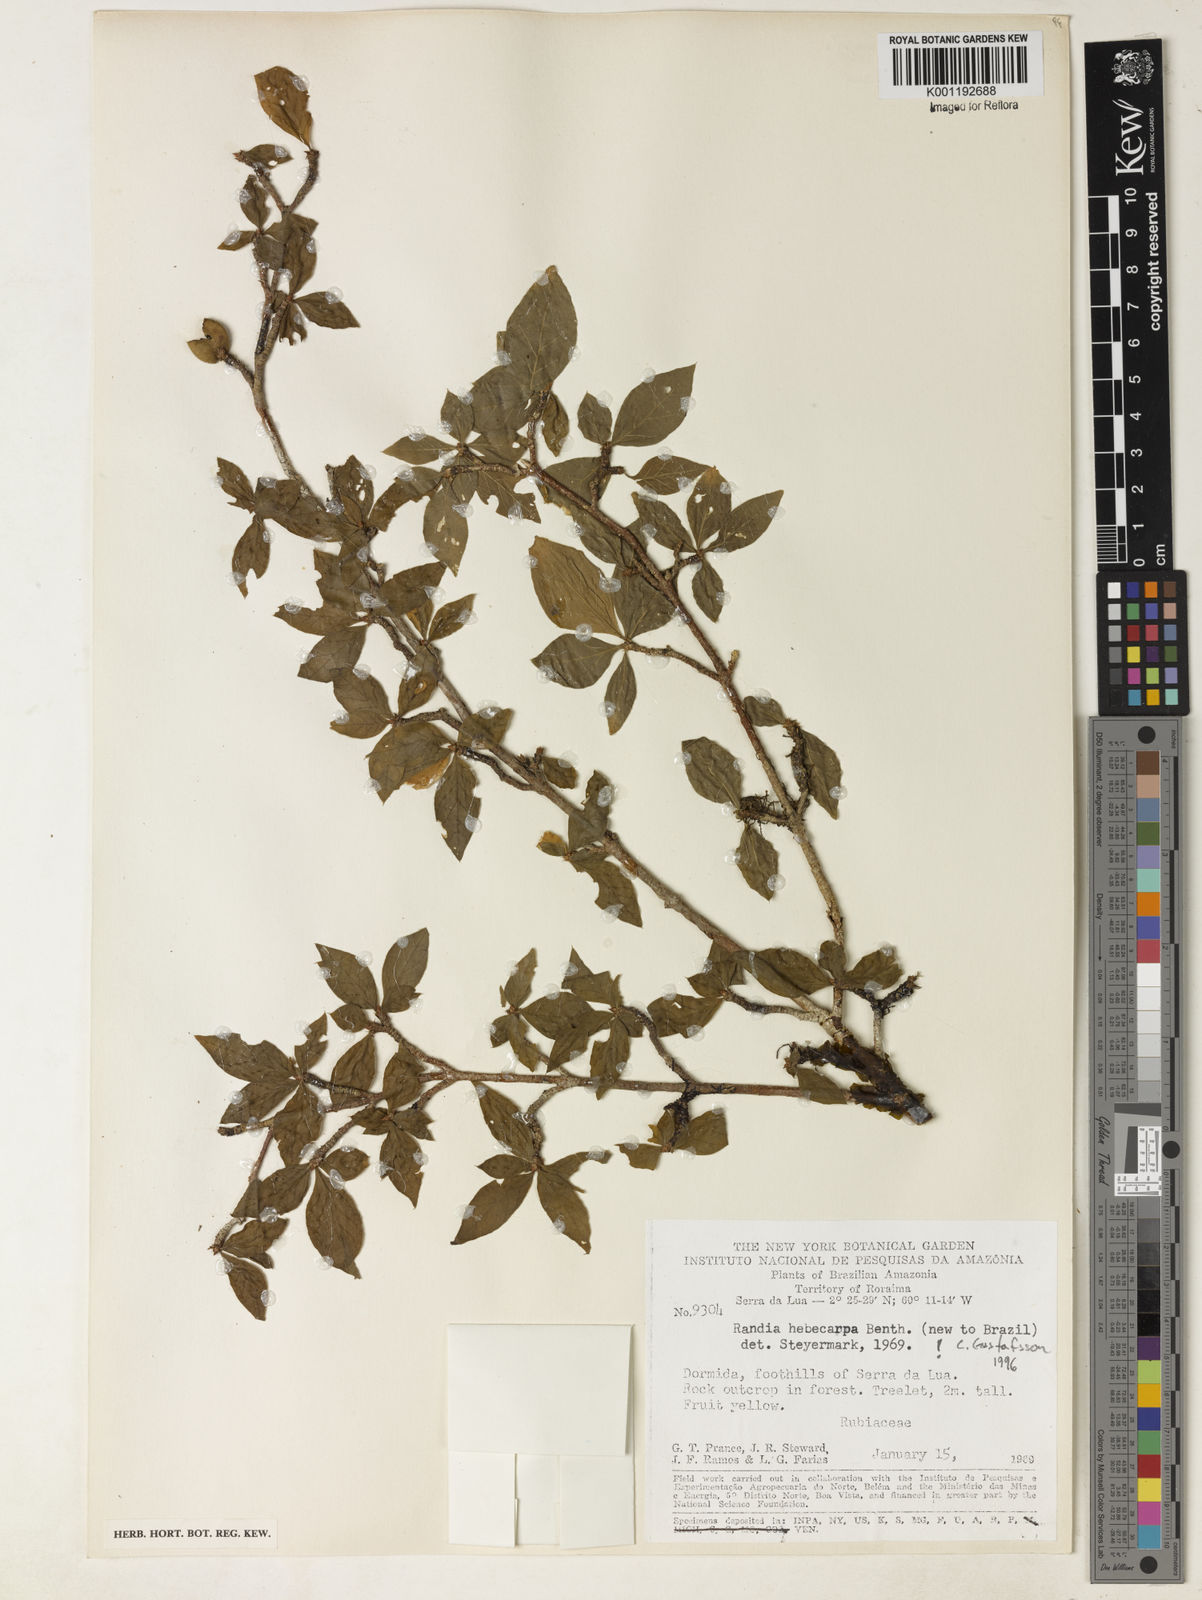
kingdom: Plantae
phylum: Tracheophyta
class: Magnoliopsida
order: Gentianales
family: Rubiaceae
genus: Randia
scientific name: Randia hebecarpa
